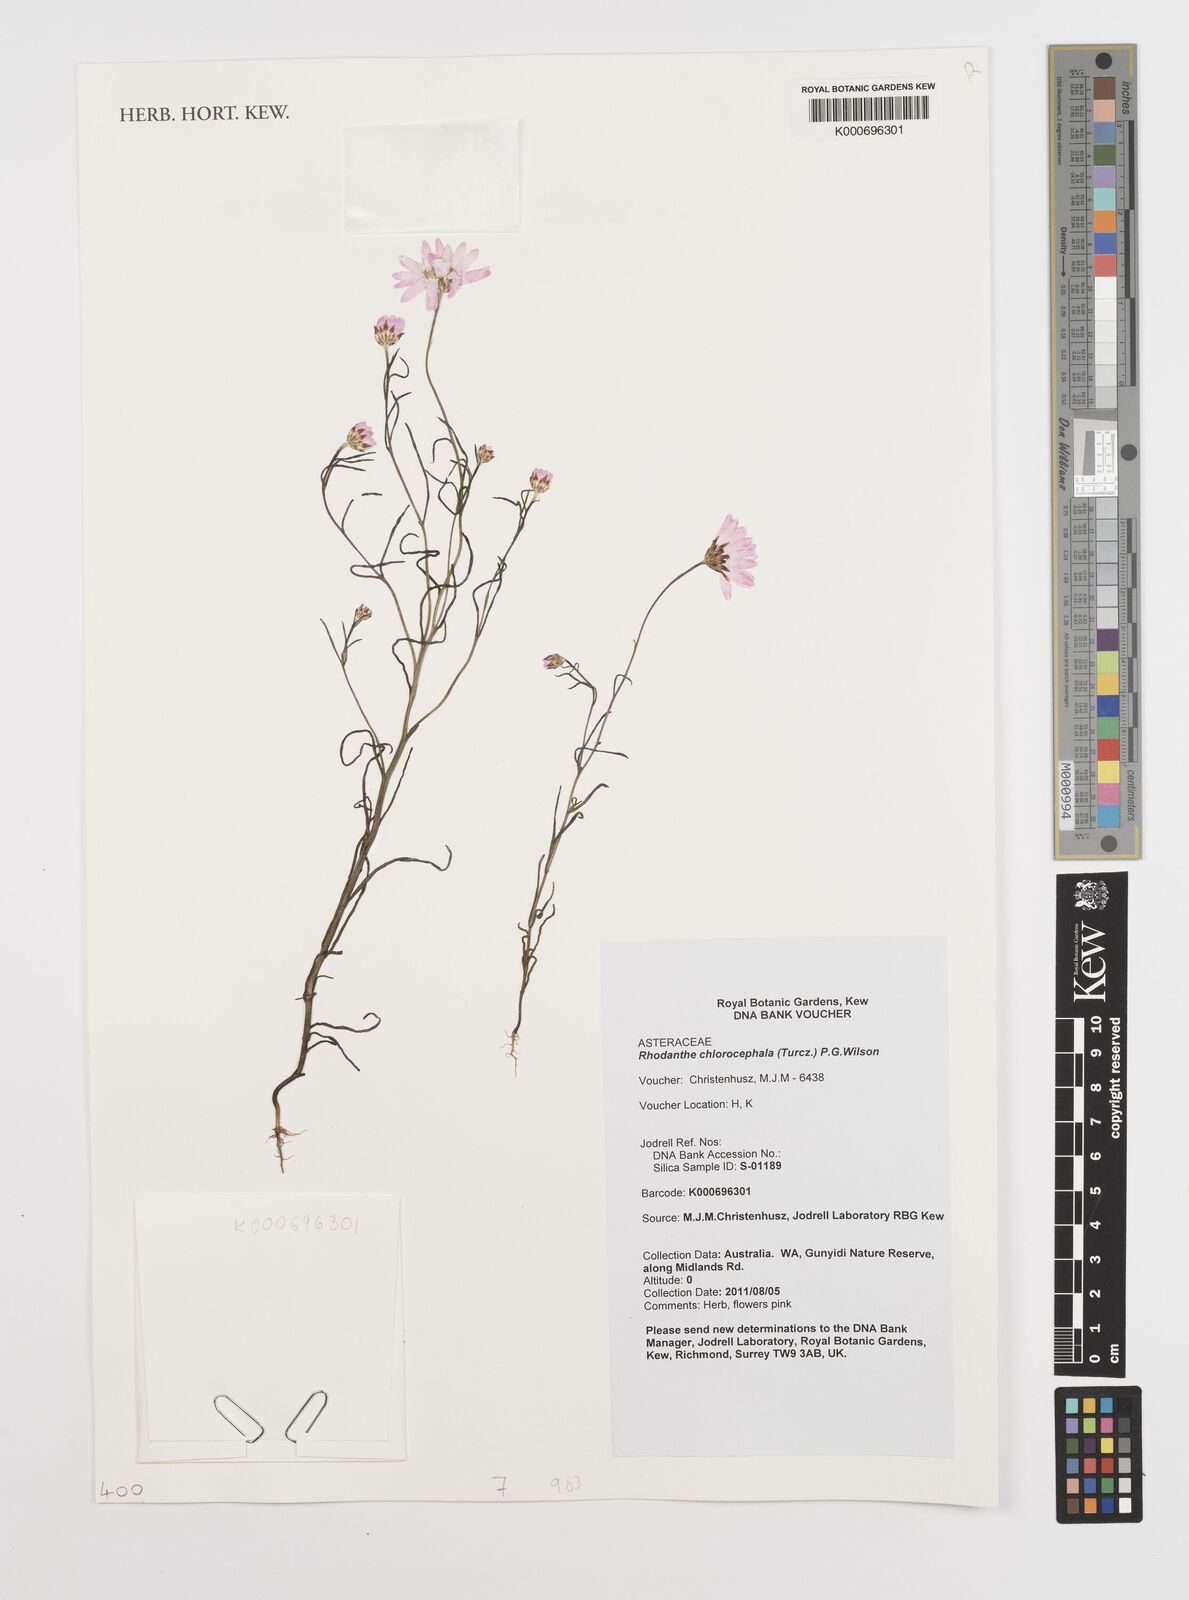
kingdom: Plantae
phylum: Tracheophyta
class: Magnoliopsida
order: Asterales
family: Asteraceae
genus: Rhodanthe
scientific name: Rhodanthe chlorocephala
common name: Rosy sunray
